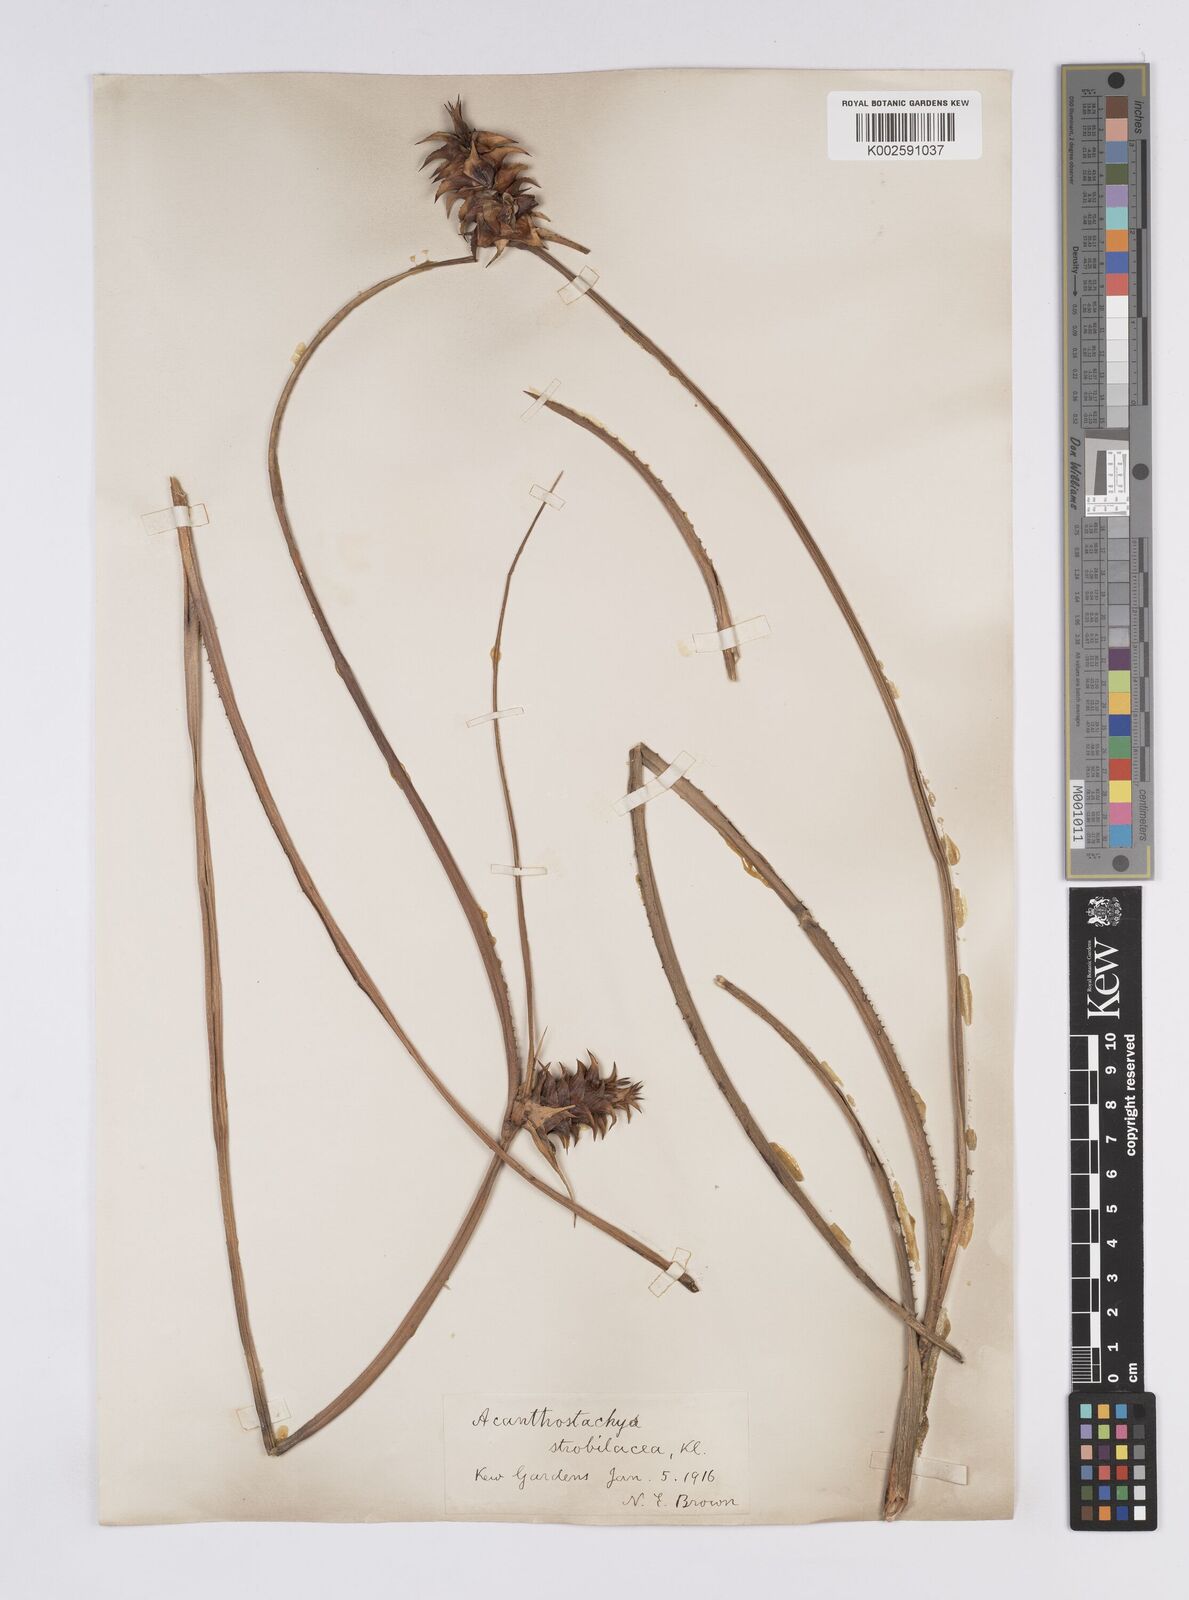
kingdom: Plantae
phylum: Tracheophyta
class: Liliopsida
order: Poales
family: Bromeliaceae
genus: Acanthostachys
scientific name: Acanthostachys strobilacea
